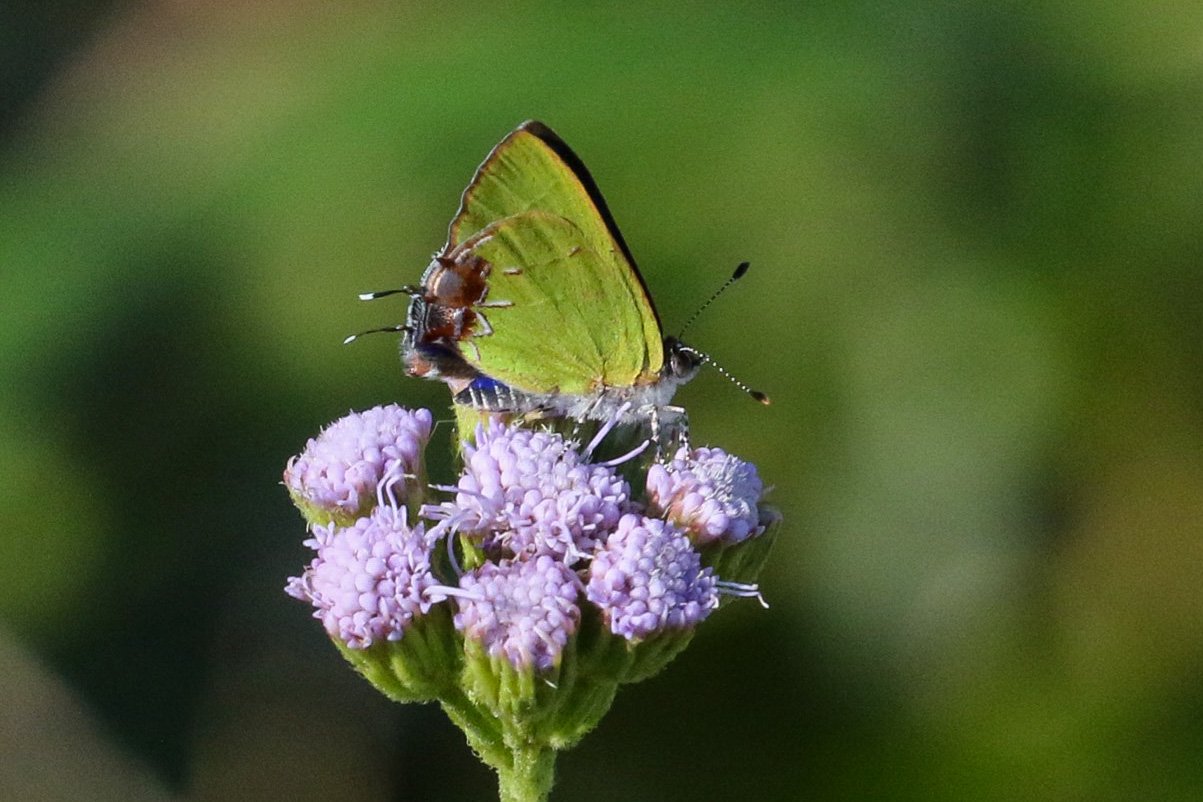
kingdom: Animalia
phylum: Arthropoda
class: Insecta
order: Lepidoptera
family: Lycaenidae
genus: Chlorostrymon
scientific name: Chlorostrymon telea
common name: Telea Hairstreak
